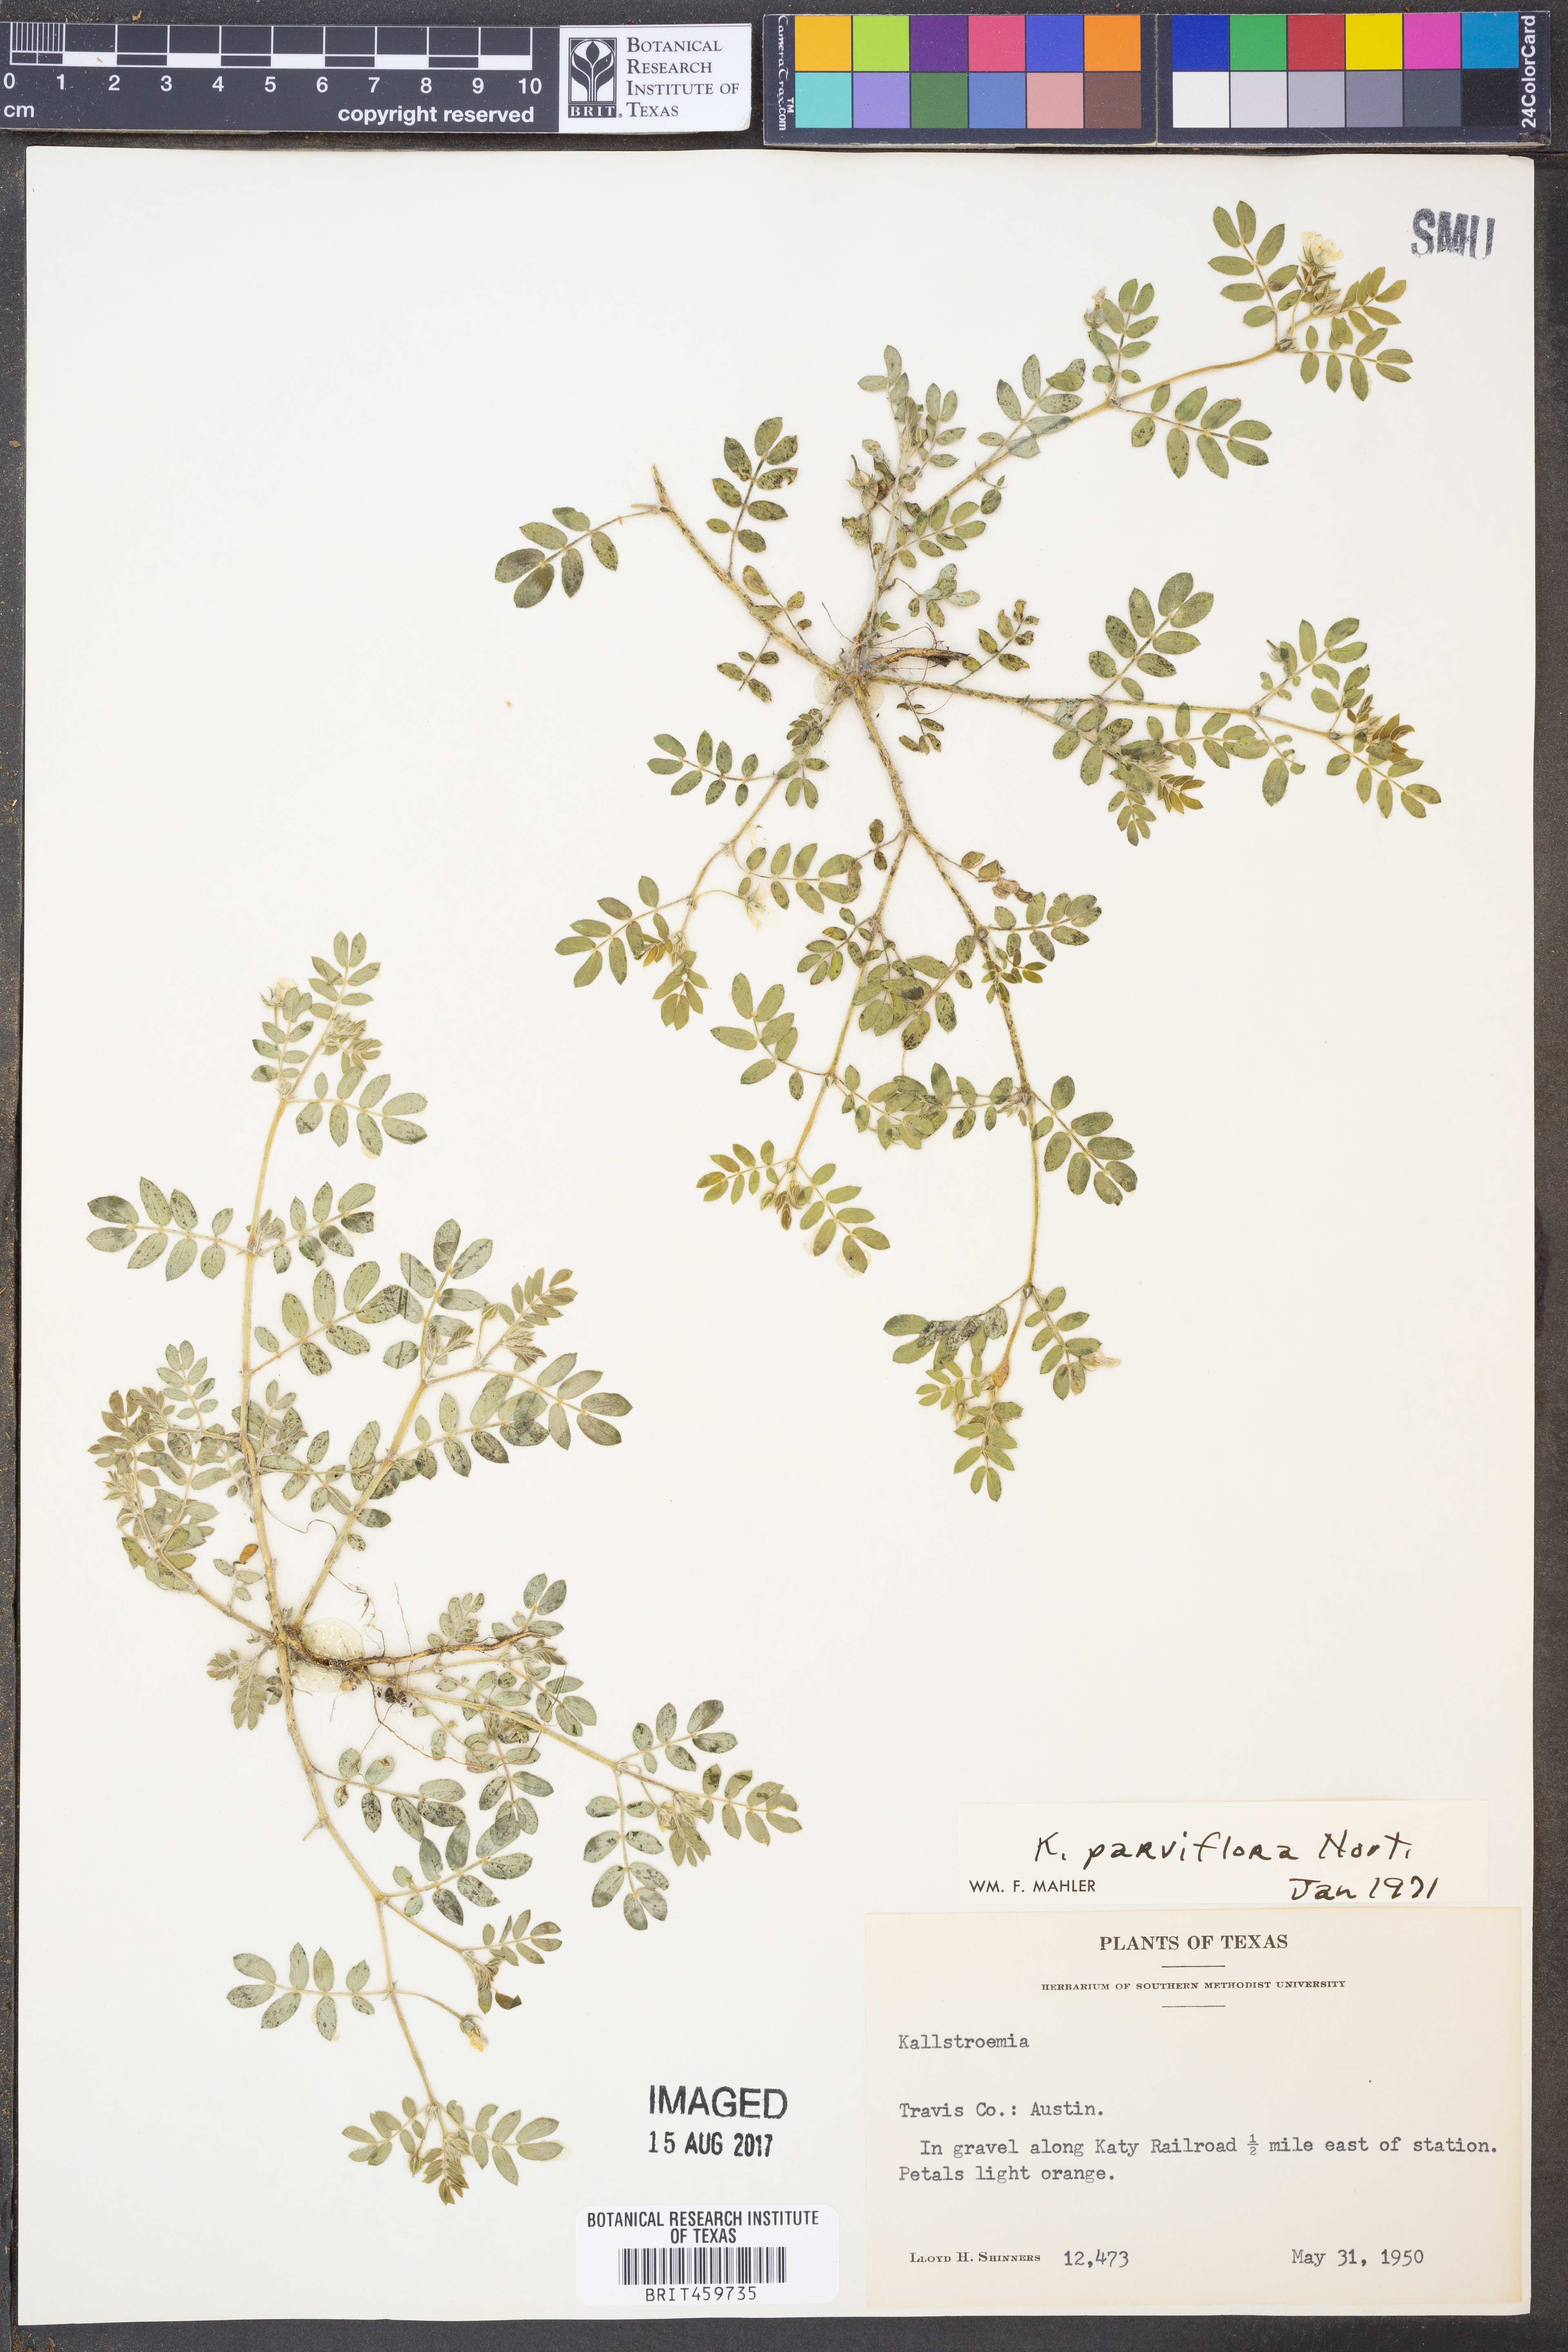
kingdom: Plantae
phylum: Tracheophyta
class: Magnoliopsida
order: Zygophyllales
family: Zygophyllaceae
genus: Kallstroemia
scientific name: Kallstroemia parviflora
